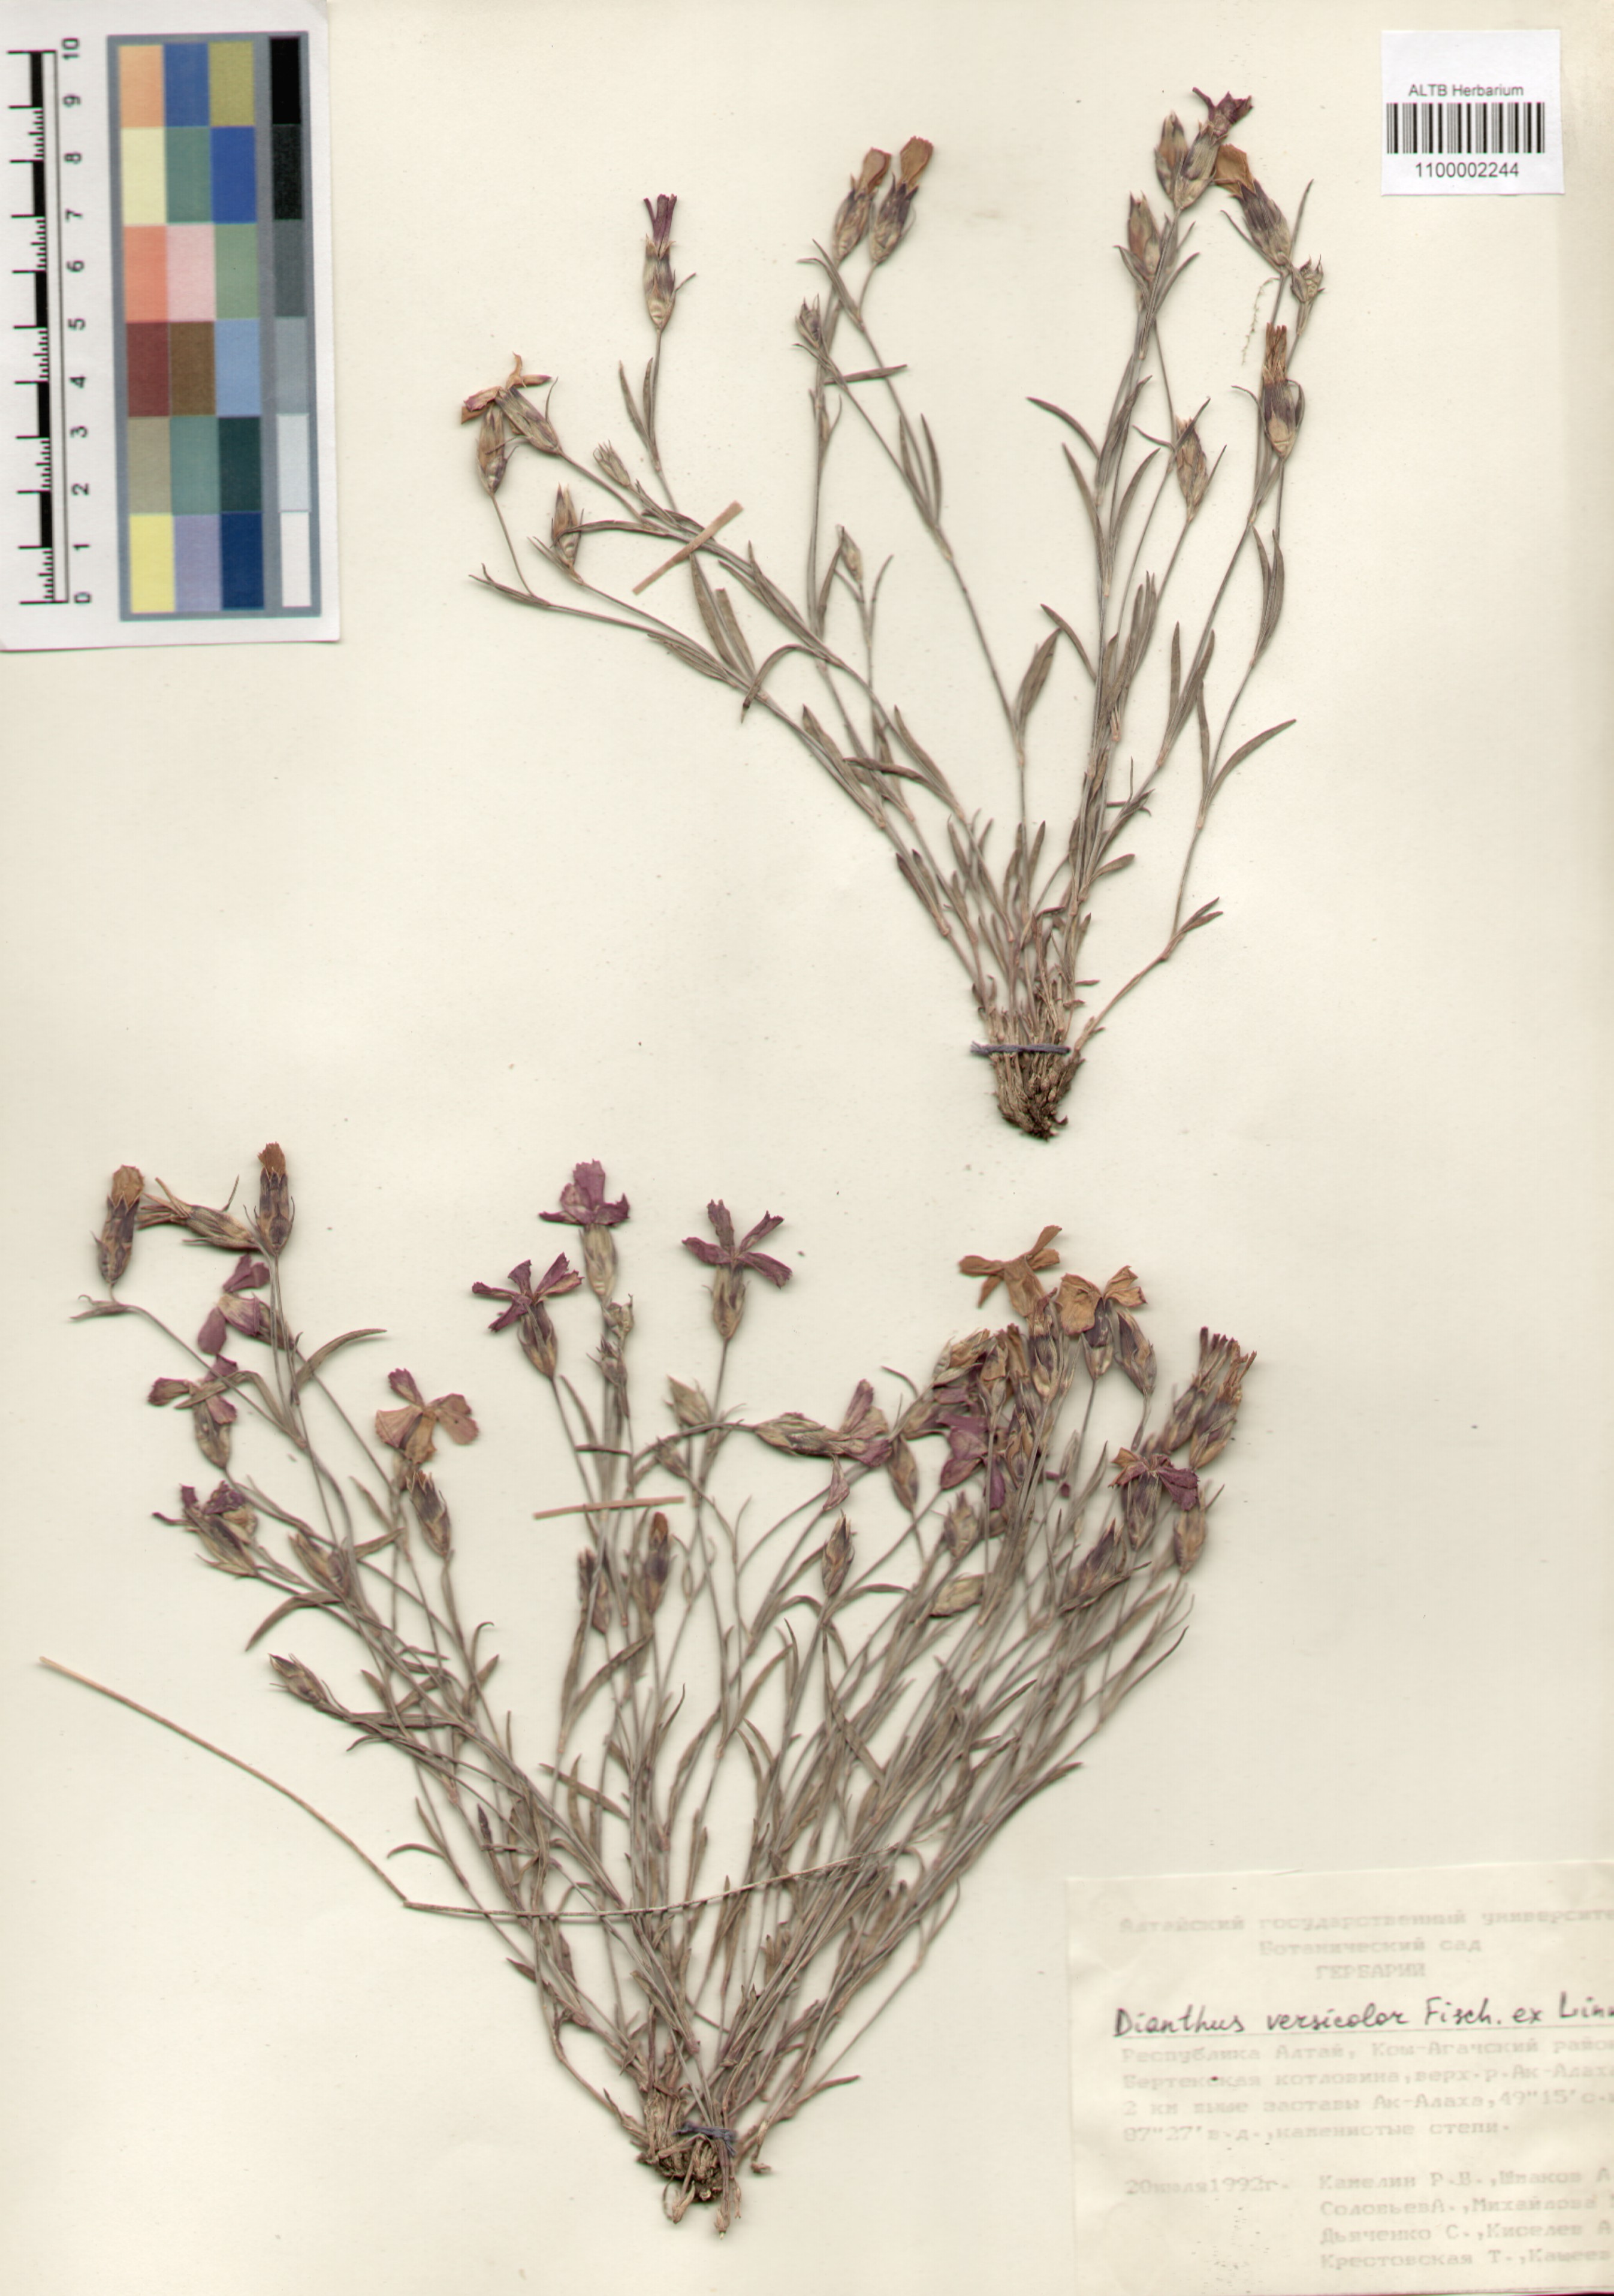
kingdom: Plantae
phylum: Tracheophyta
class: Magnoliopsida
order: Caryophyllales
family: Caryophyllaceae
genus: Dianthus
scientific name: Dianthus chinensis
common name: Rainbow pink
